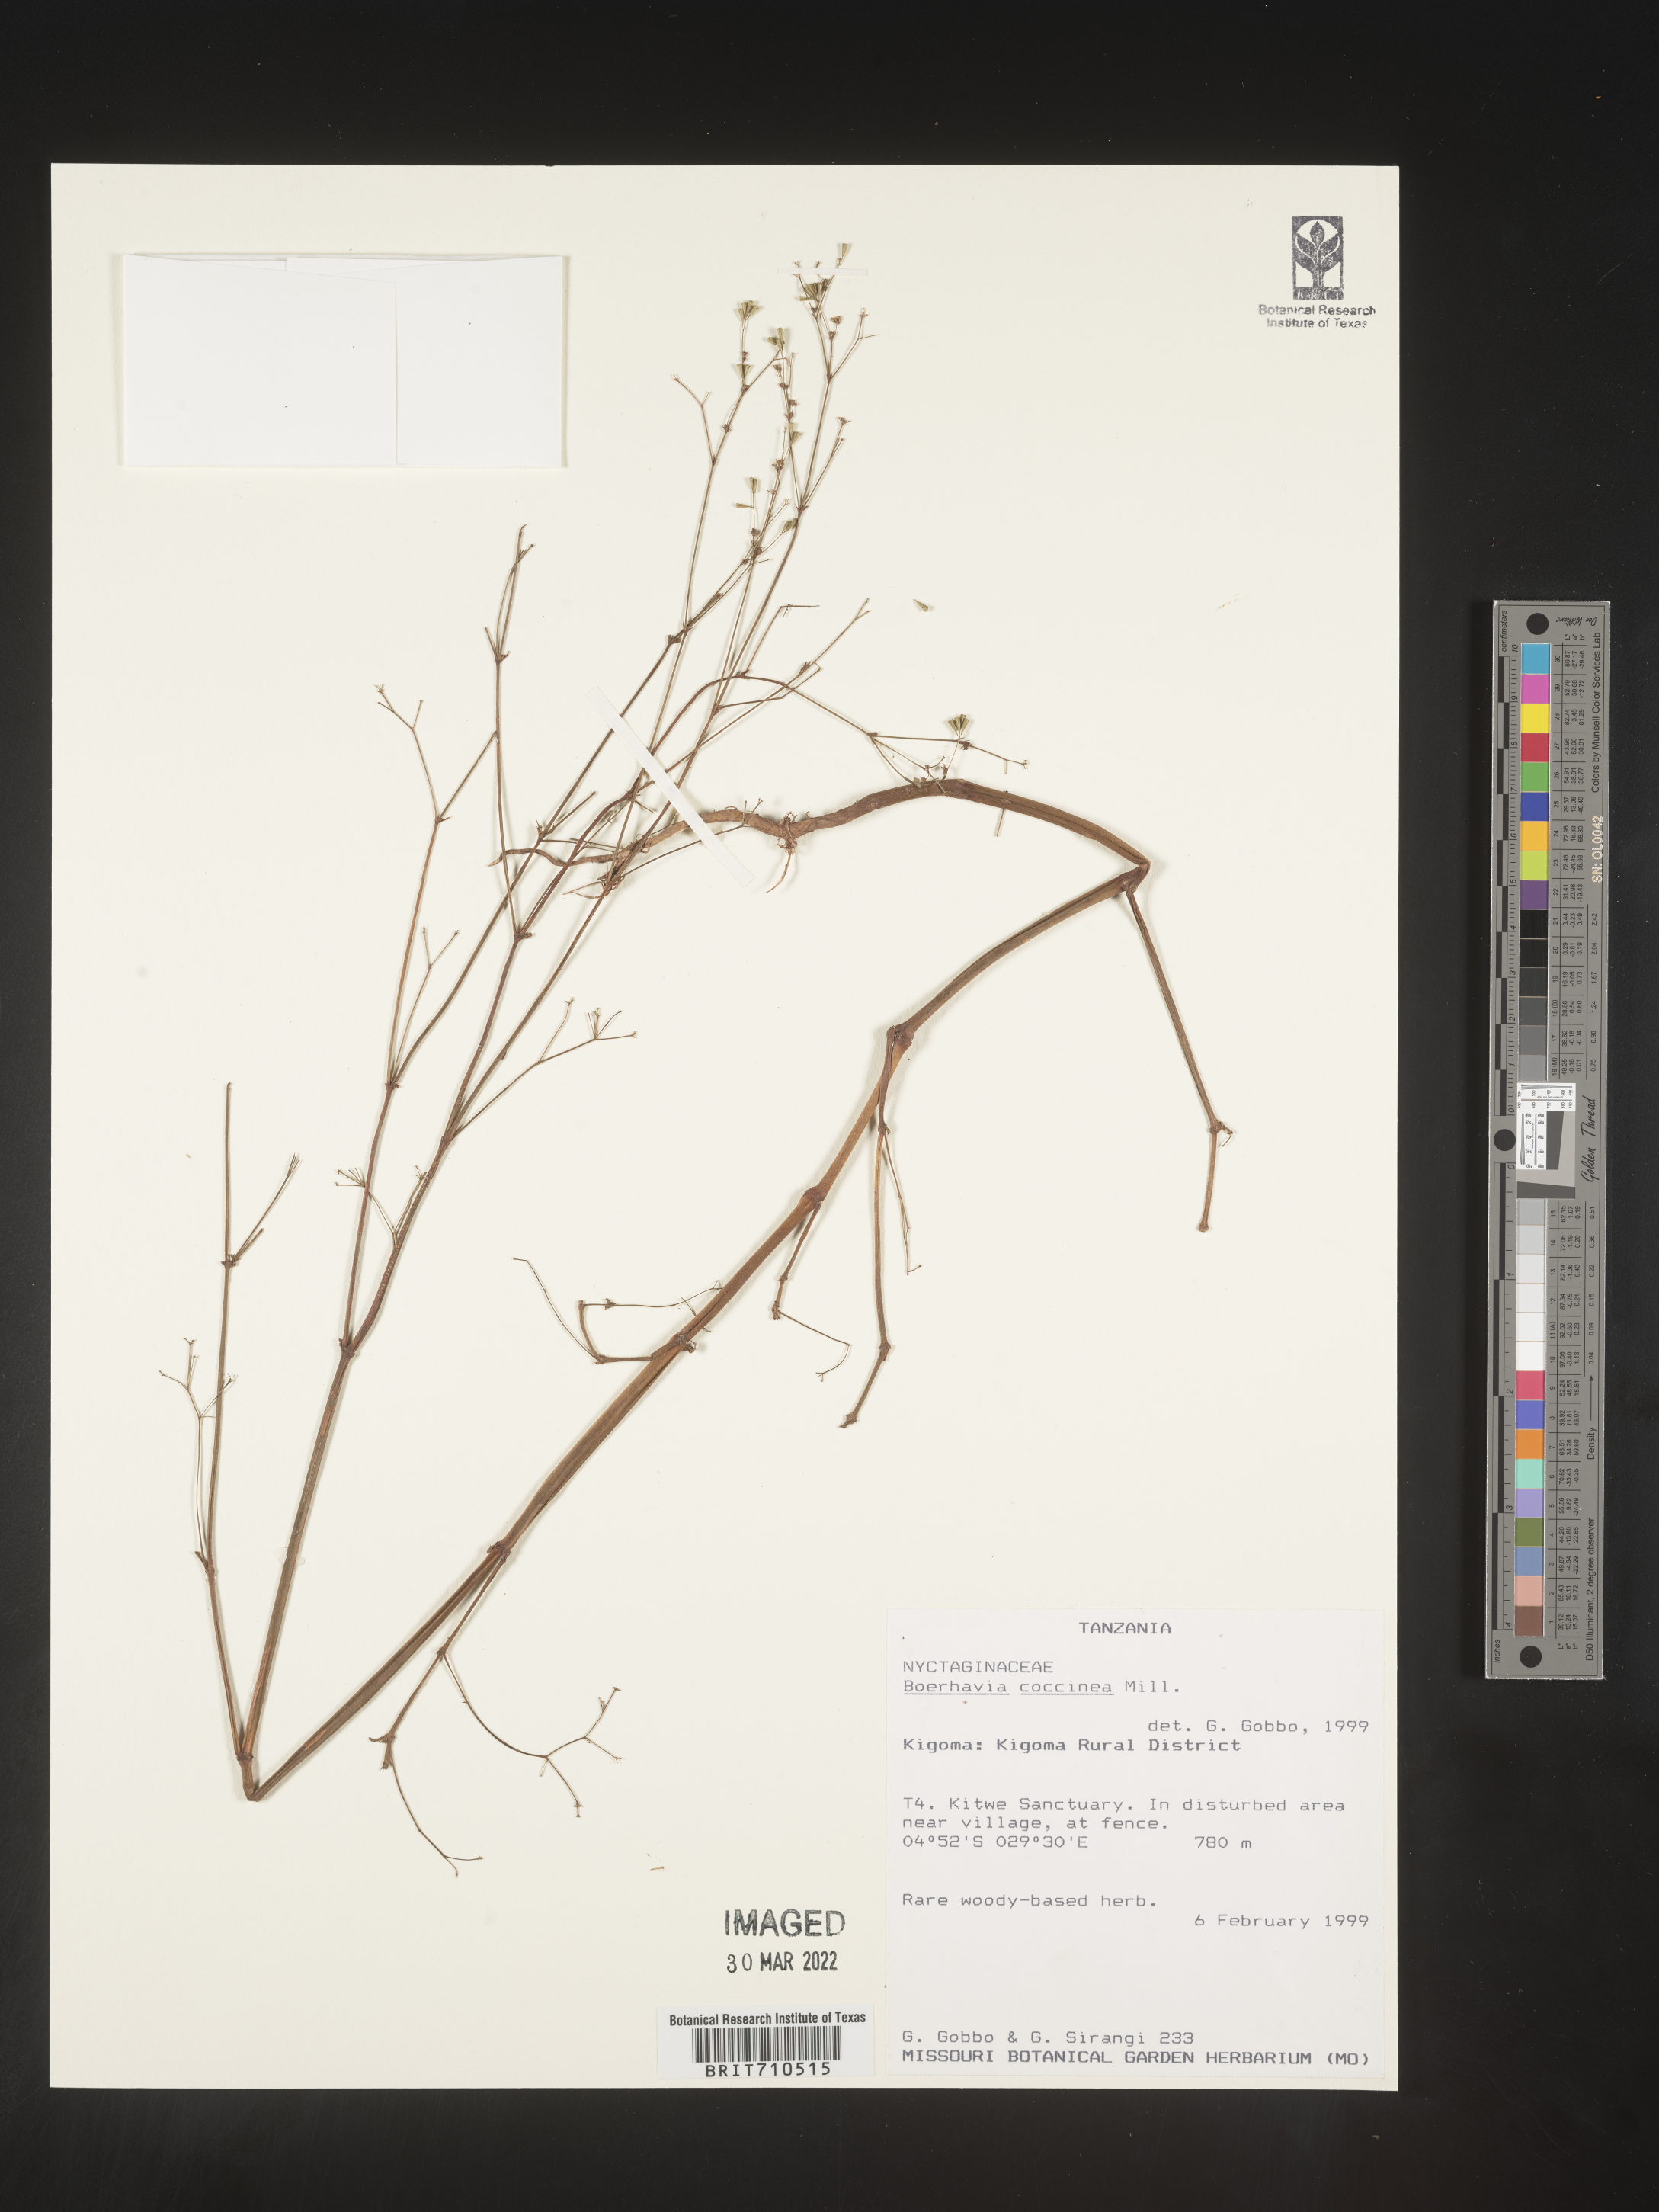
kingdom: Plantae
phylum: Tracheophyta
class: Magnoliopsida
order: Caryophyllales
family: Nyctaginaceae
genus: Boerhavia
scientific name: Boerhavia
